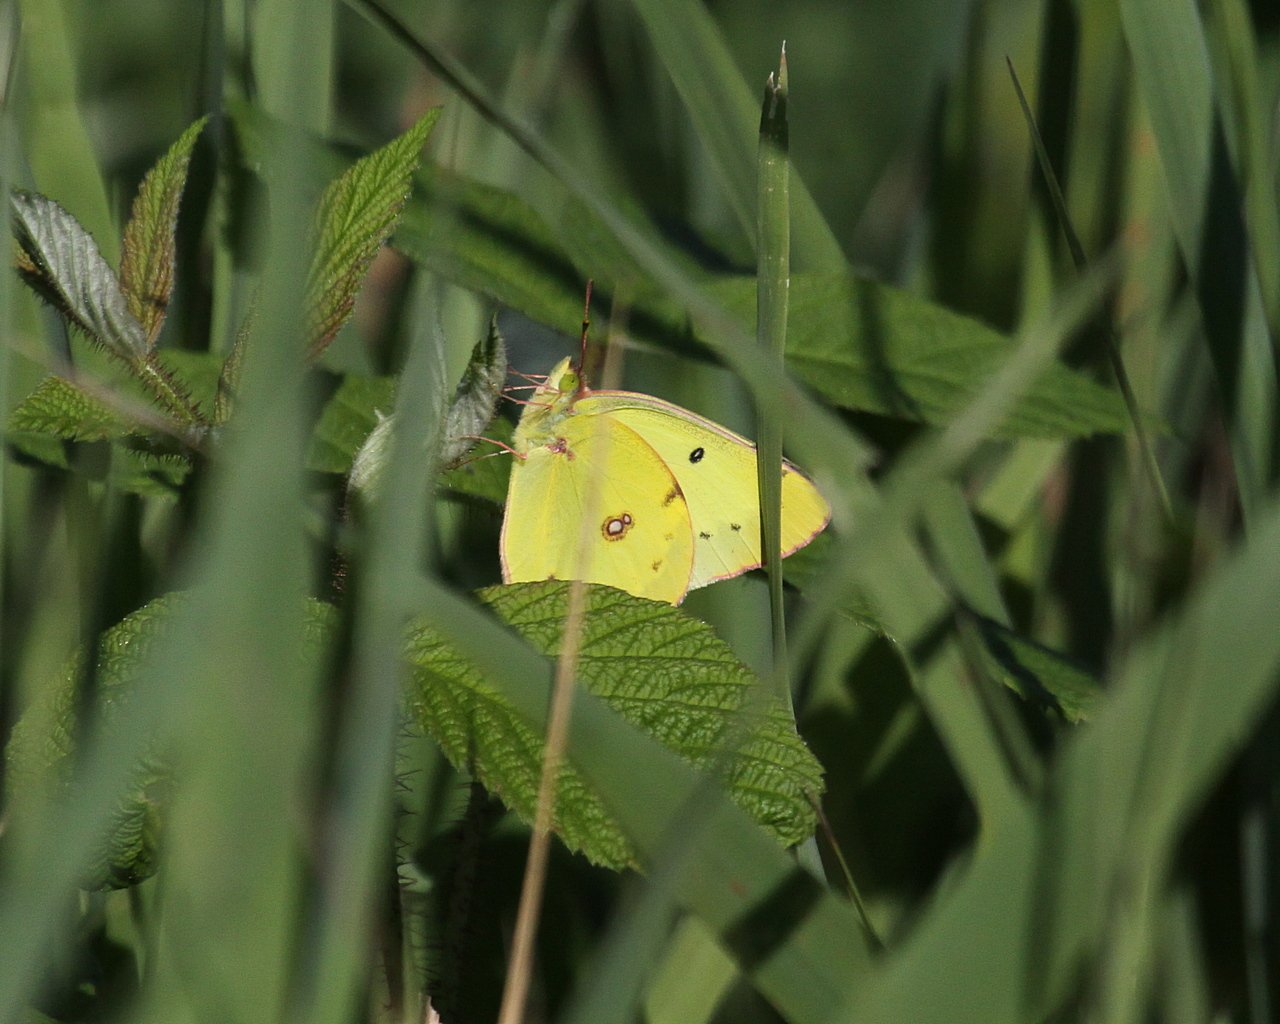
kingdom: Animalia
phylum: Arthropoda
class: Insecta
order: Lepidoptera
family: Pieridae
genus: Colias
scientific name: Colias philodice
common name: Clouded Sulphur
